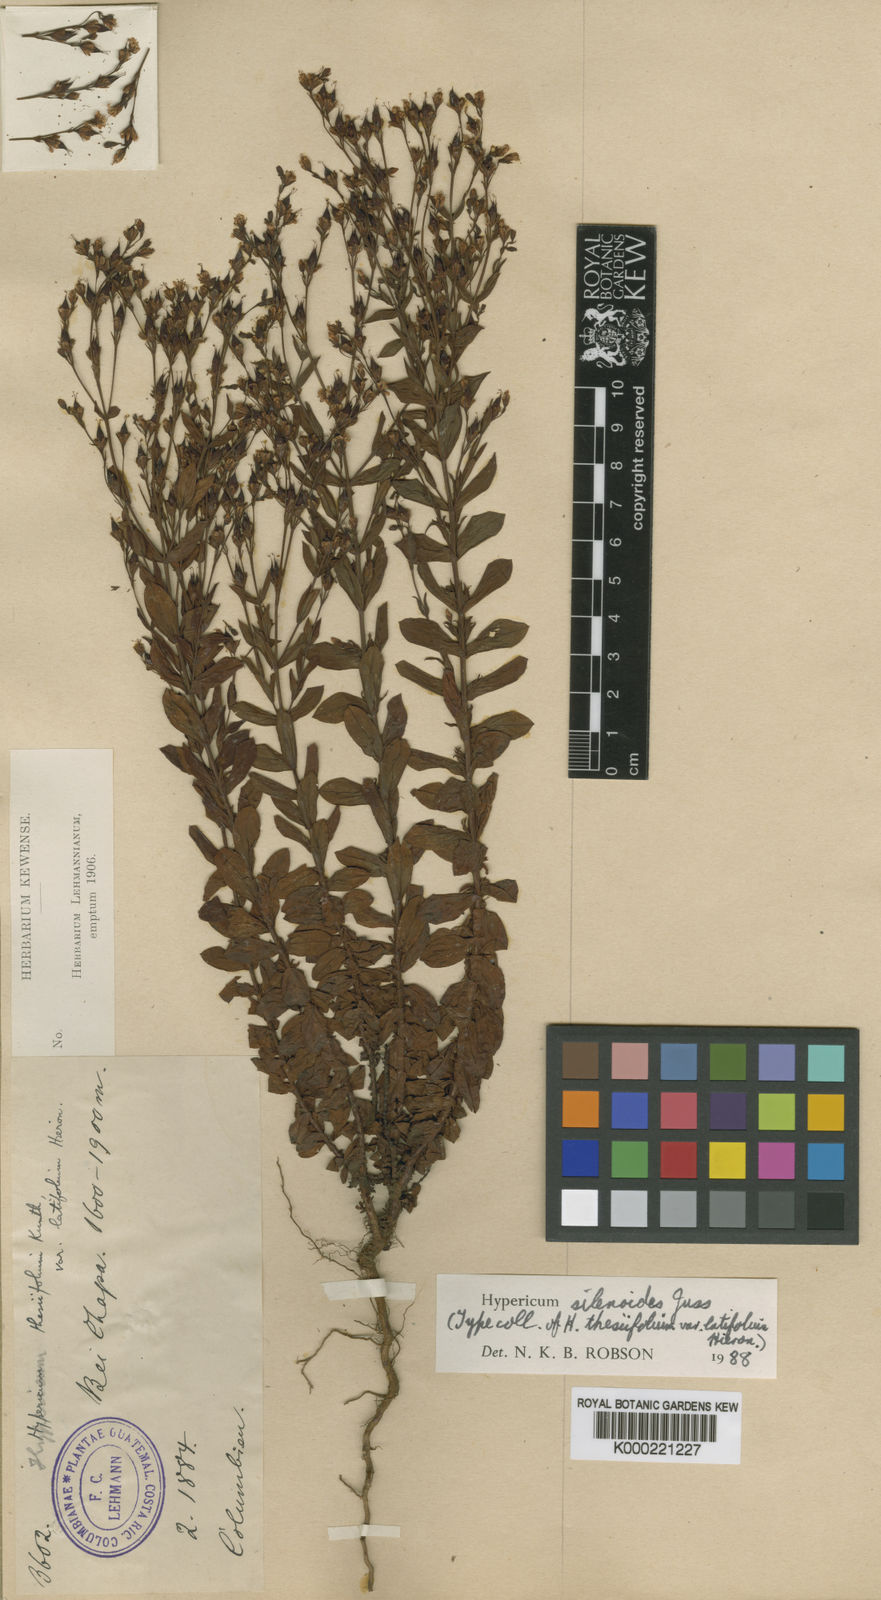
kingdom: Plantae
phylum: Tracheophyta
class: Magnoliopsida
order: Malpighiales
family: Hypericaceae
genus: Hypericum
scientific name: Hypericum silenoides
